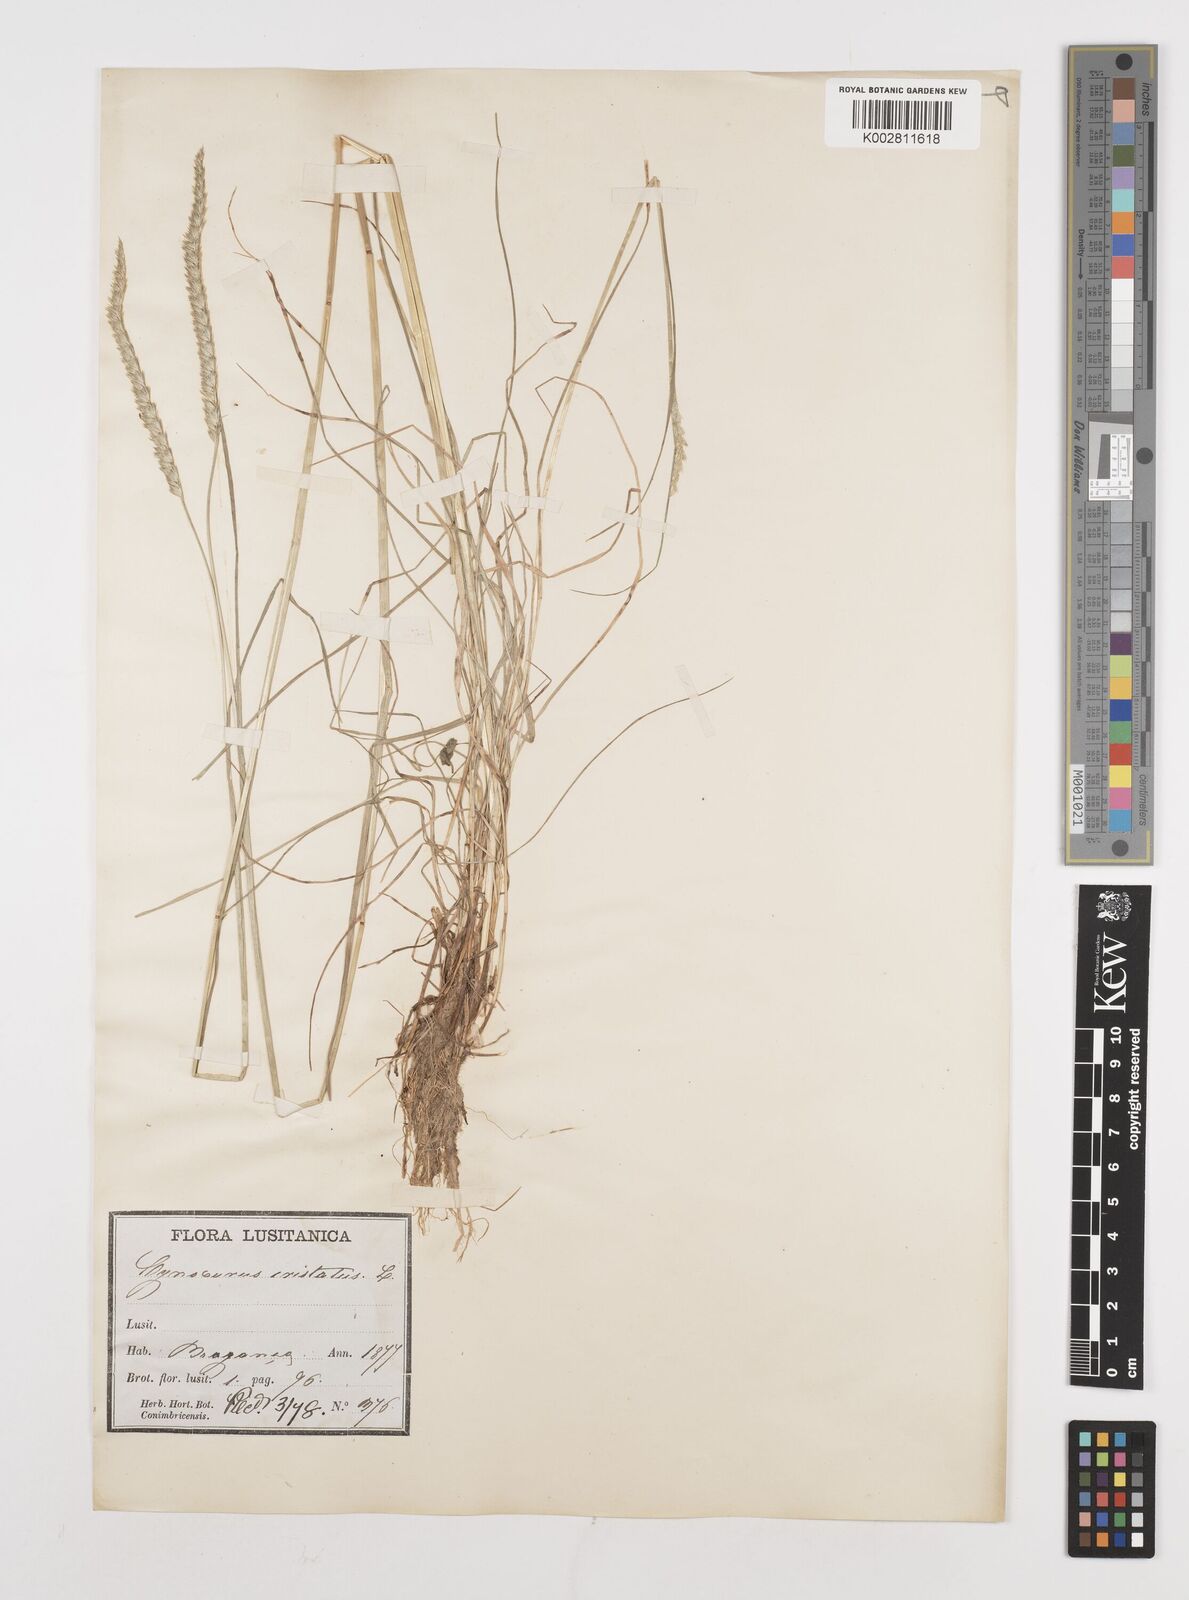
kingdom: Plantae
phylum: Tracheophyta
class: Liliopsida
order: Poales
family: Poaceae
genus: Cynosurus
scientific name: Cynosurus cristatus
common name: Crested dog's-tail
